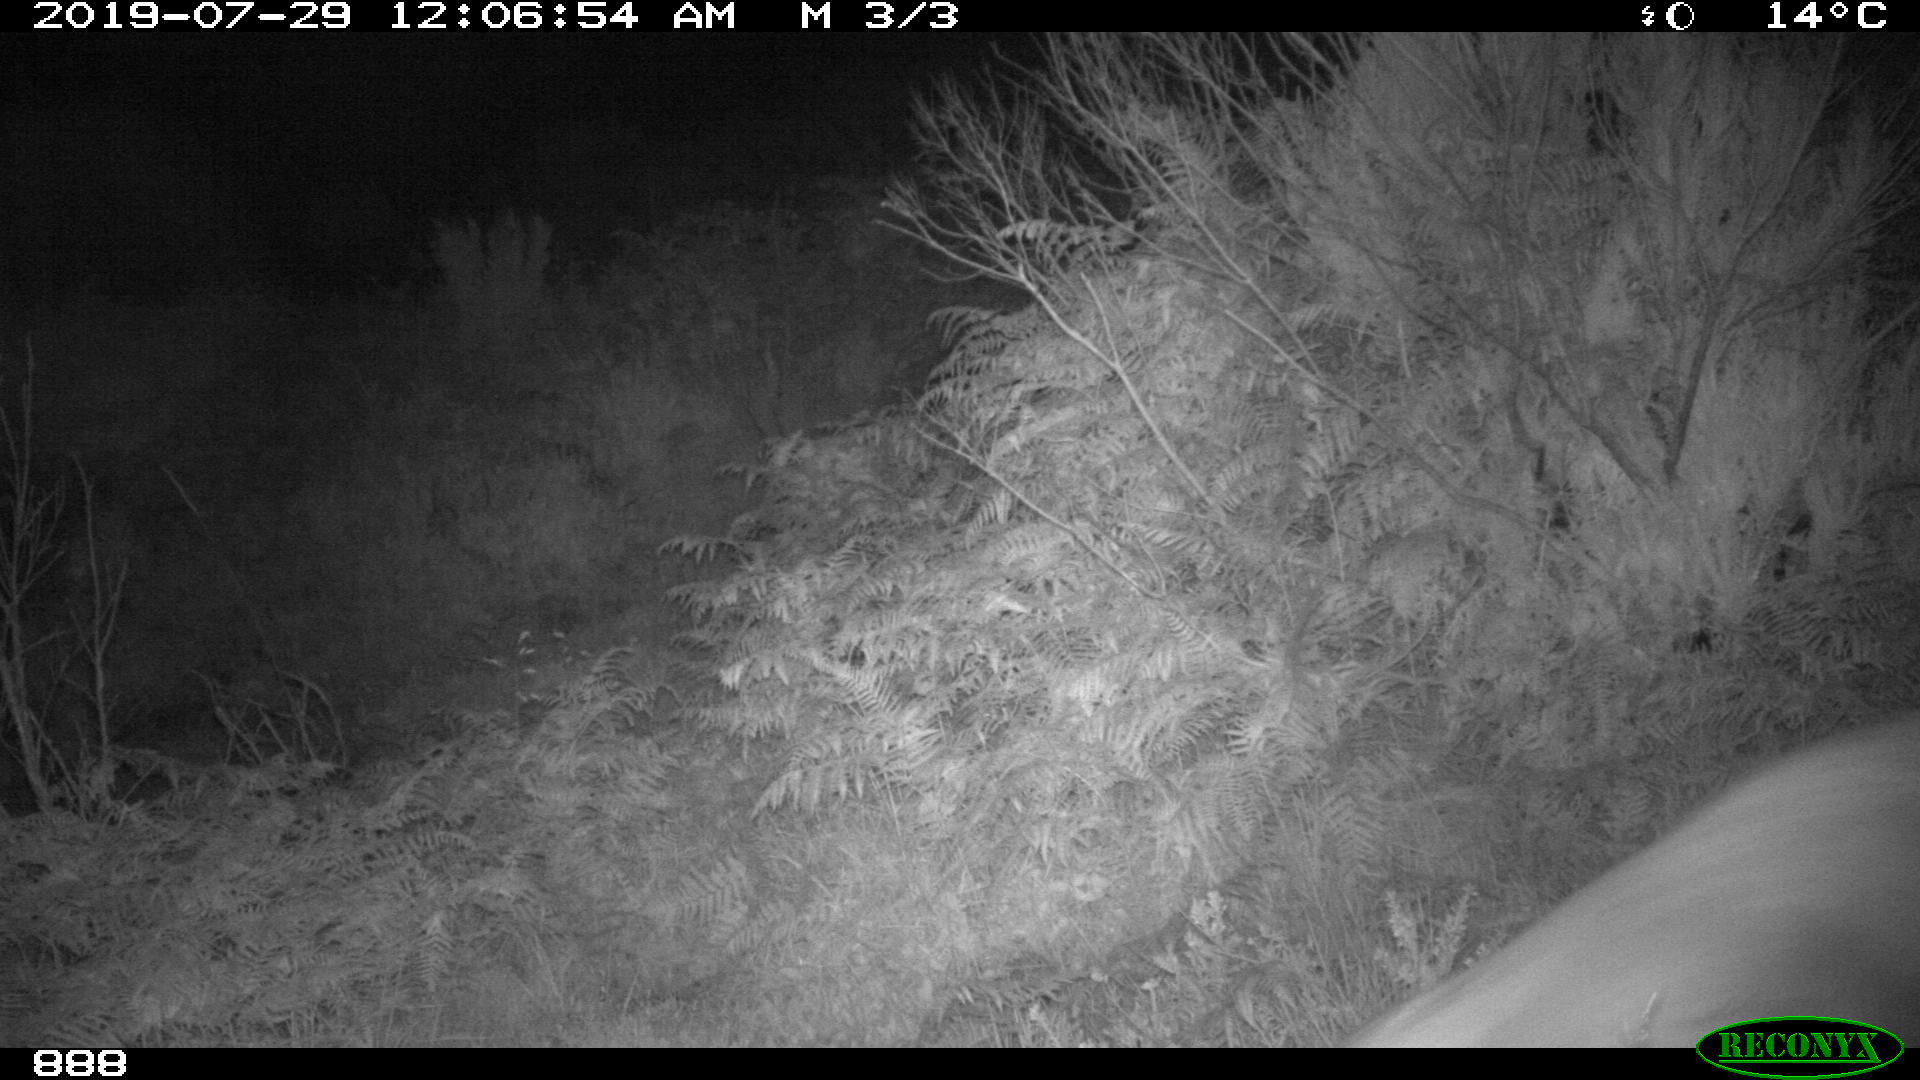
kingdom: Animalia
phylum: Chordata
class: Mammalia
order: Artiodactyla
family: Cervidae
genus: Capreolus
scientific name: Capreolus capreolus
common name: Western roe deer
